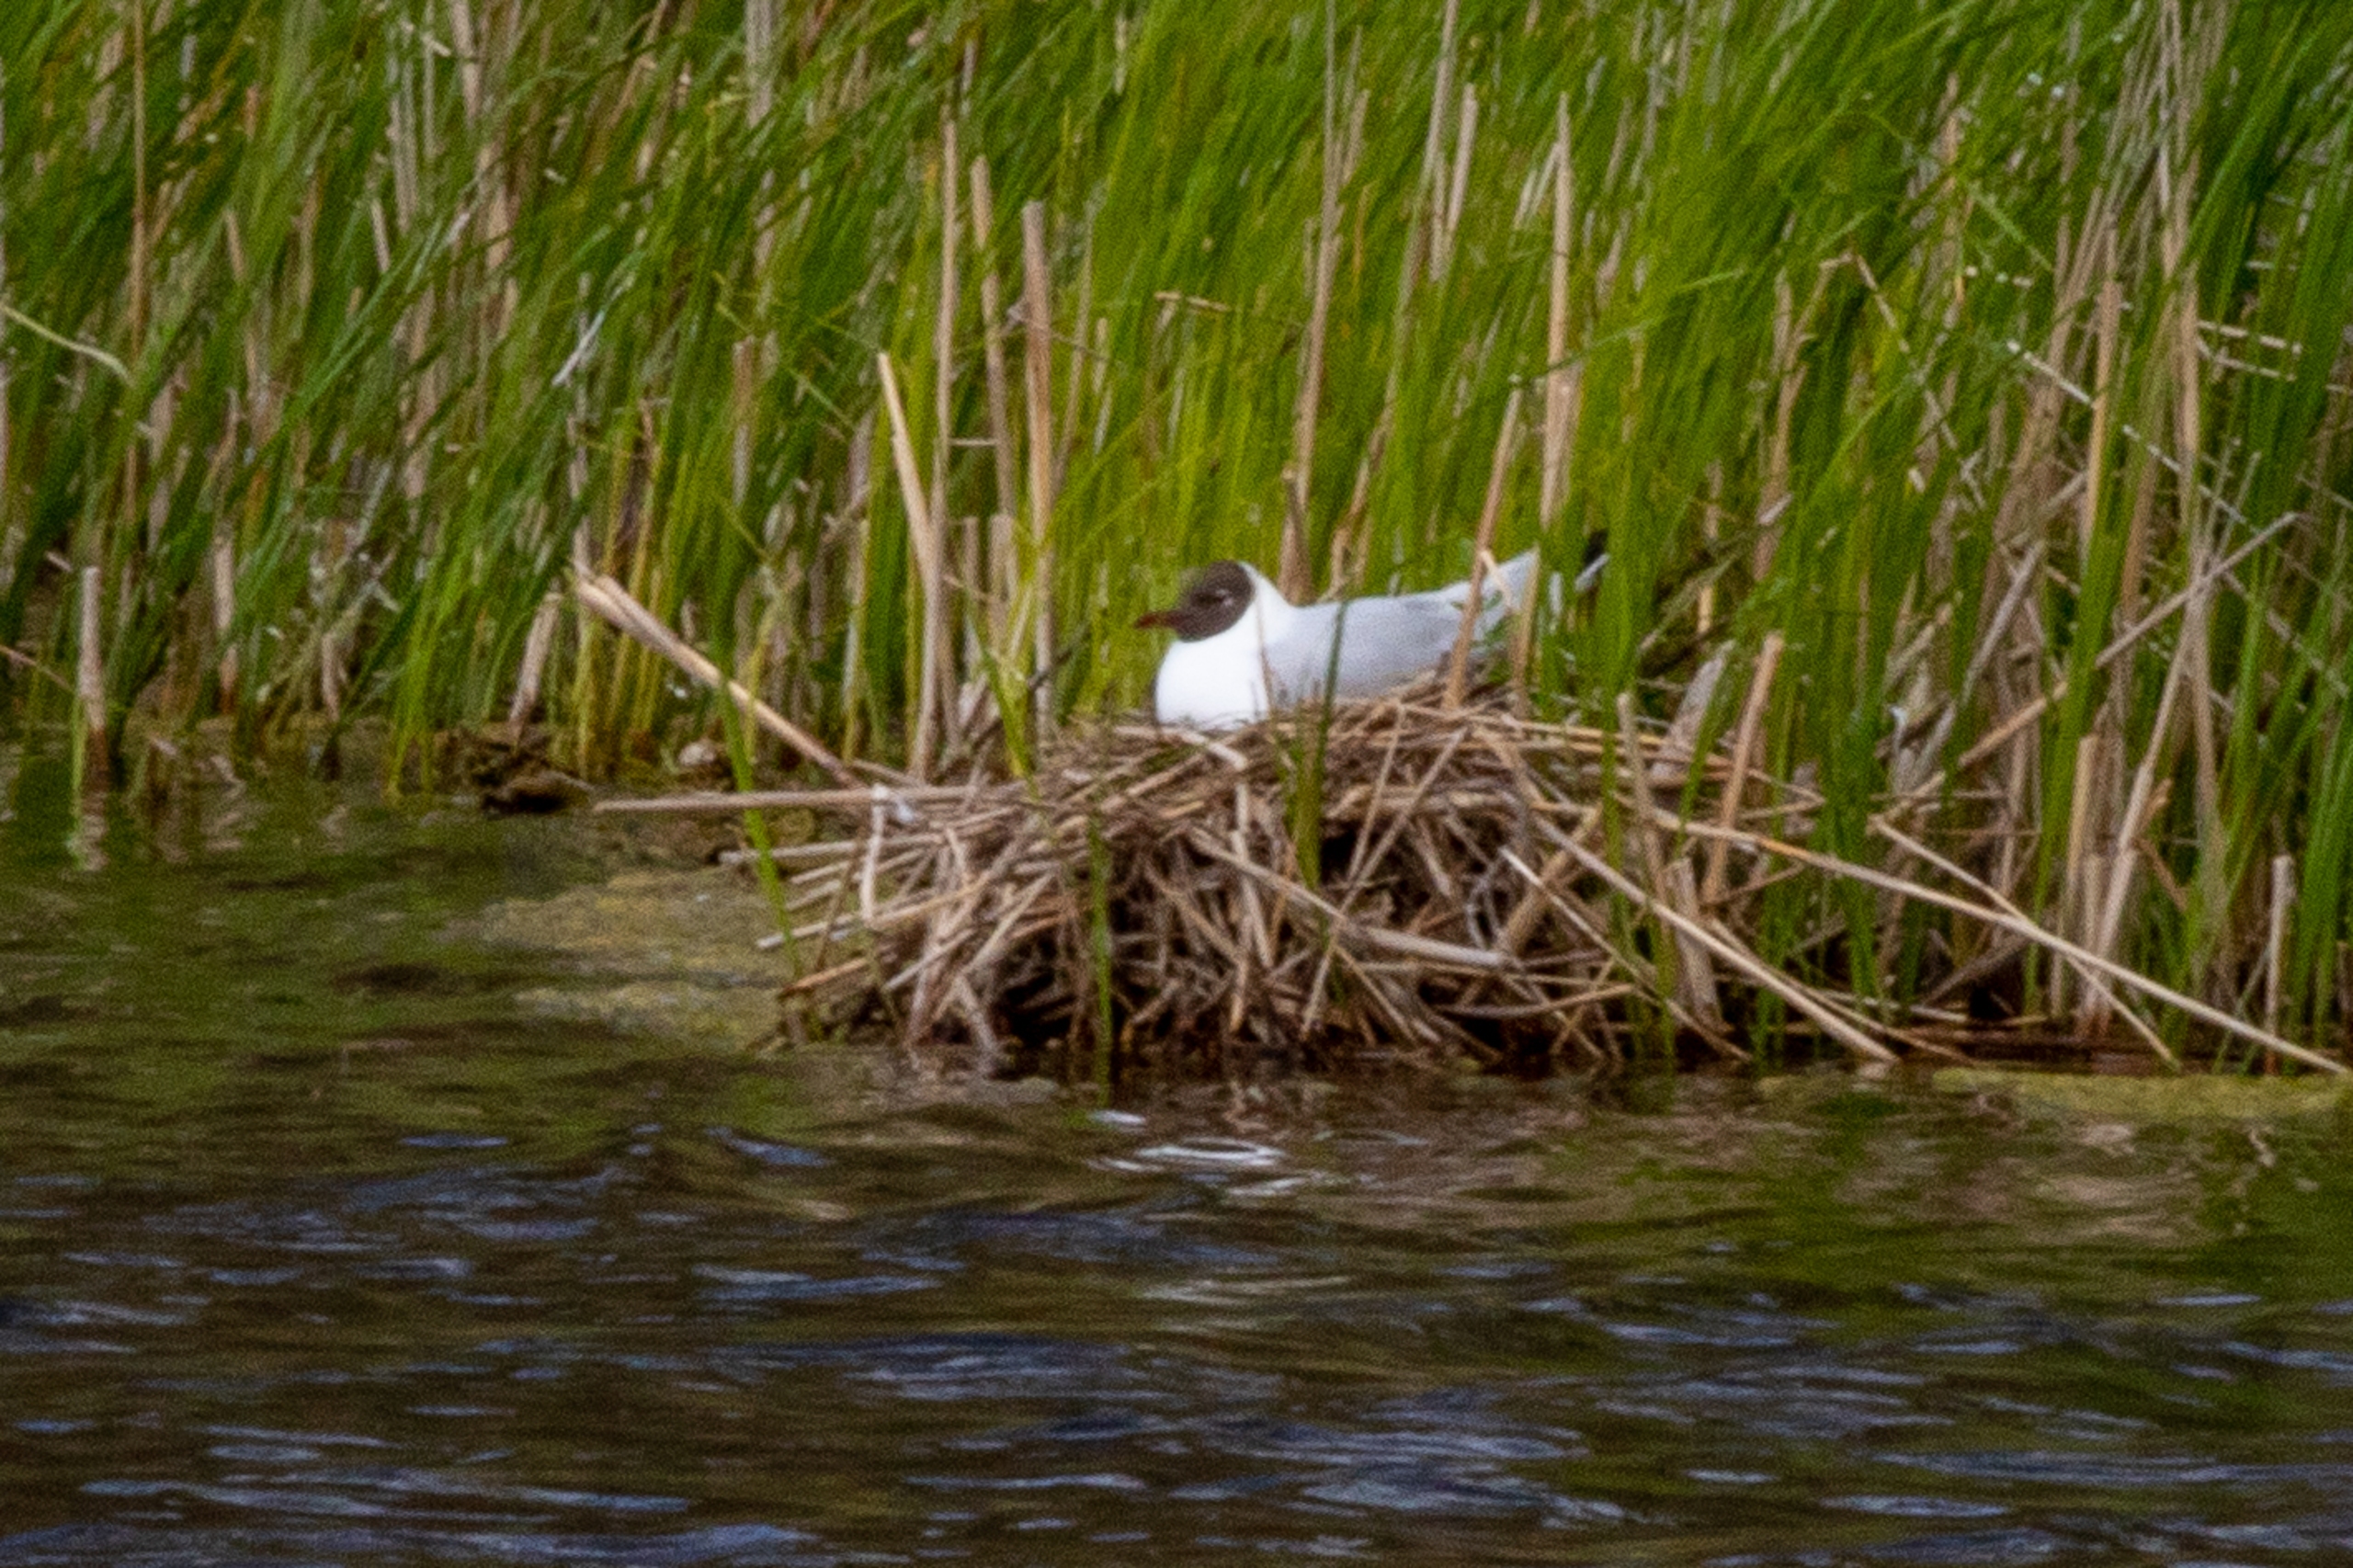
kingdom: Animalia
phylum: Chordata
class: Aves
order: Charadriiformes
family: Laridae
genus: Chroicocephalus
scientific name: Chroicocephalus ridibundus
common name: Hættemåge
